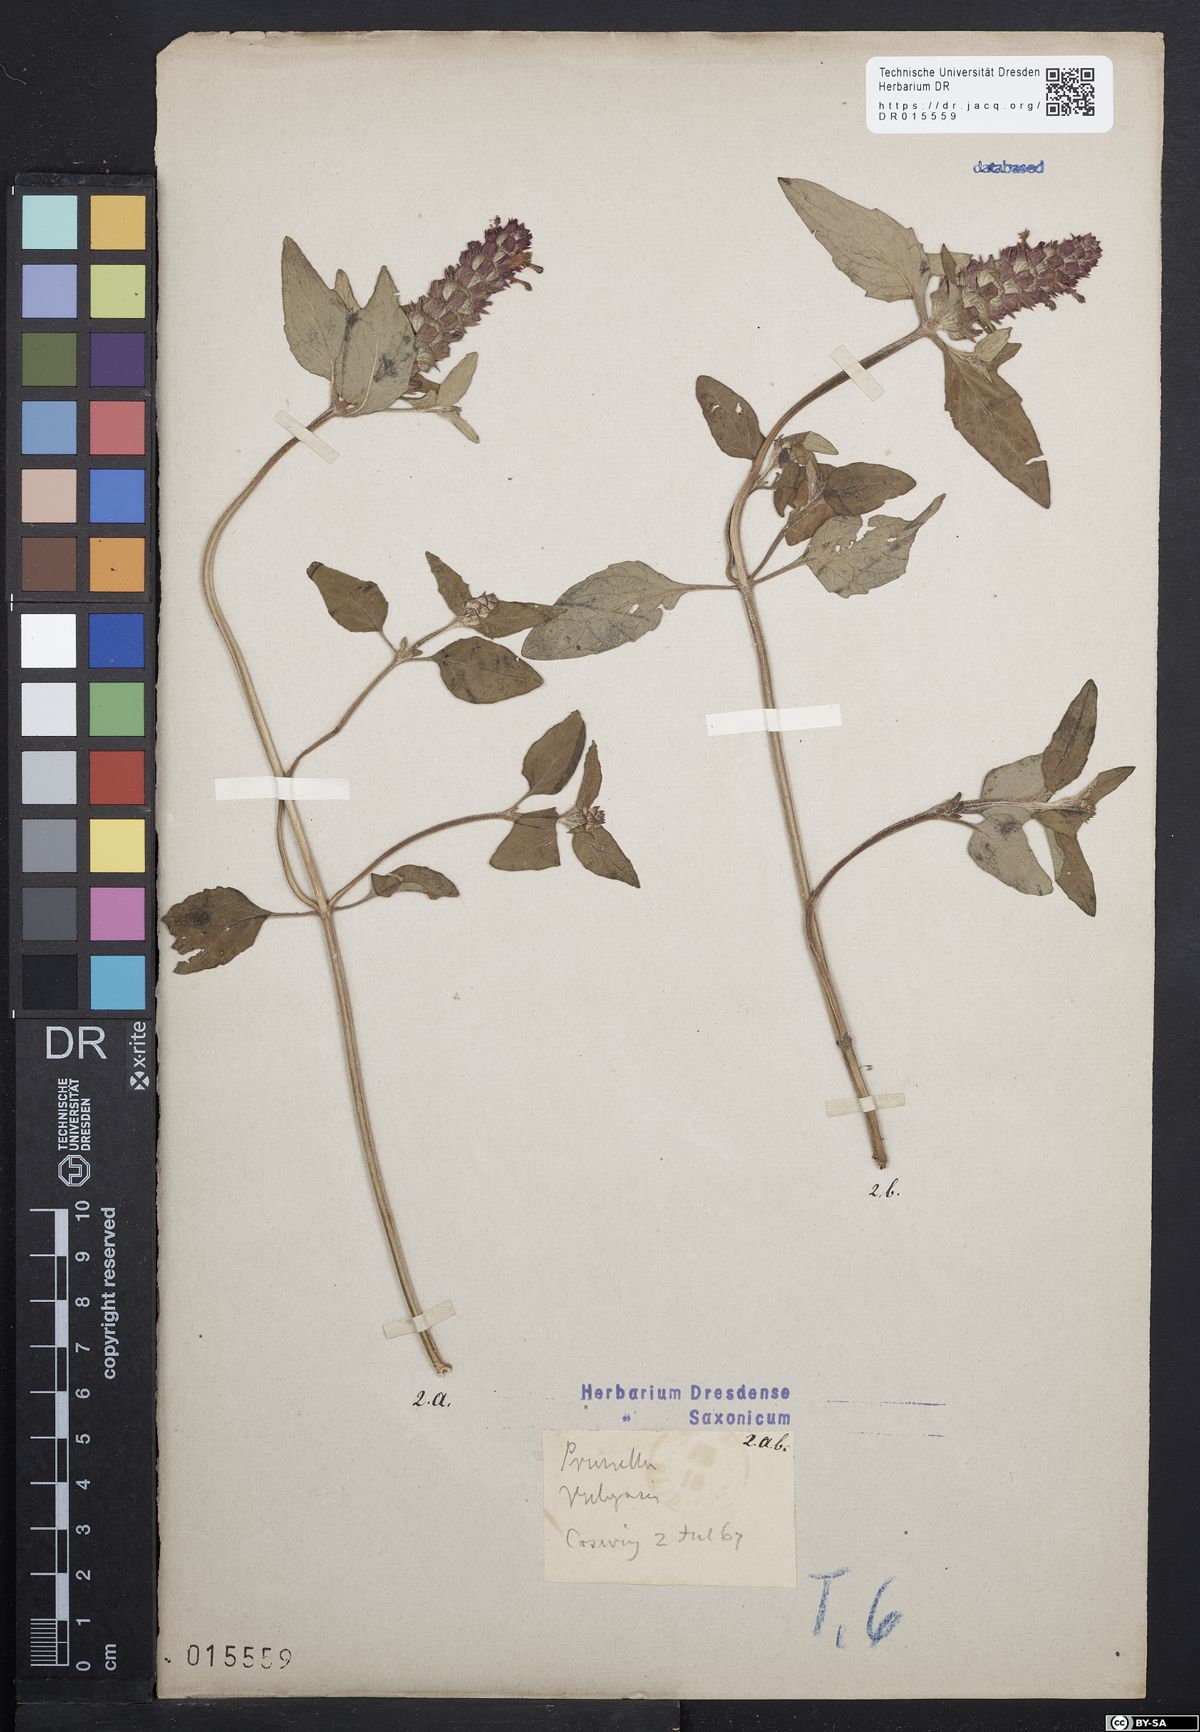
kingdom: Plantae
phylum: Tracheophyta
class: Magnoliopsida
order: Lamiales
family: Lamiaceae
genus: Prunella
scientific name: Prunella vulgaris
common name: Heal-all
